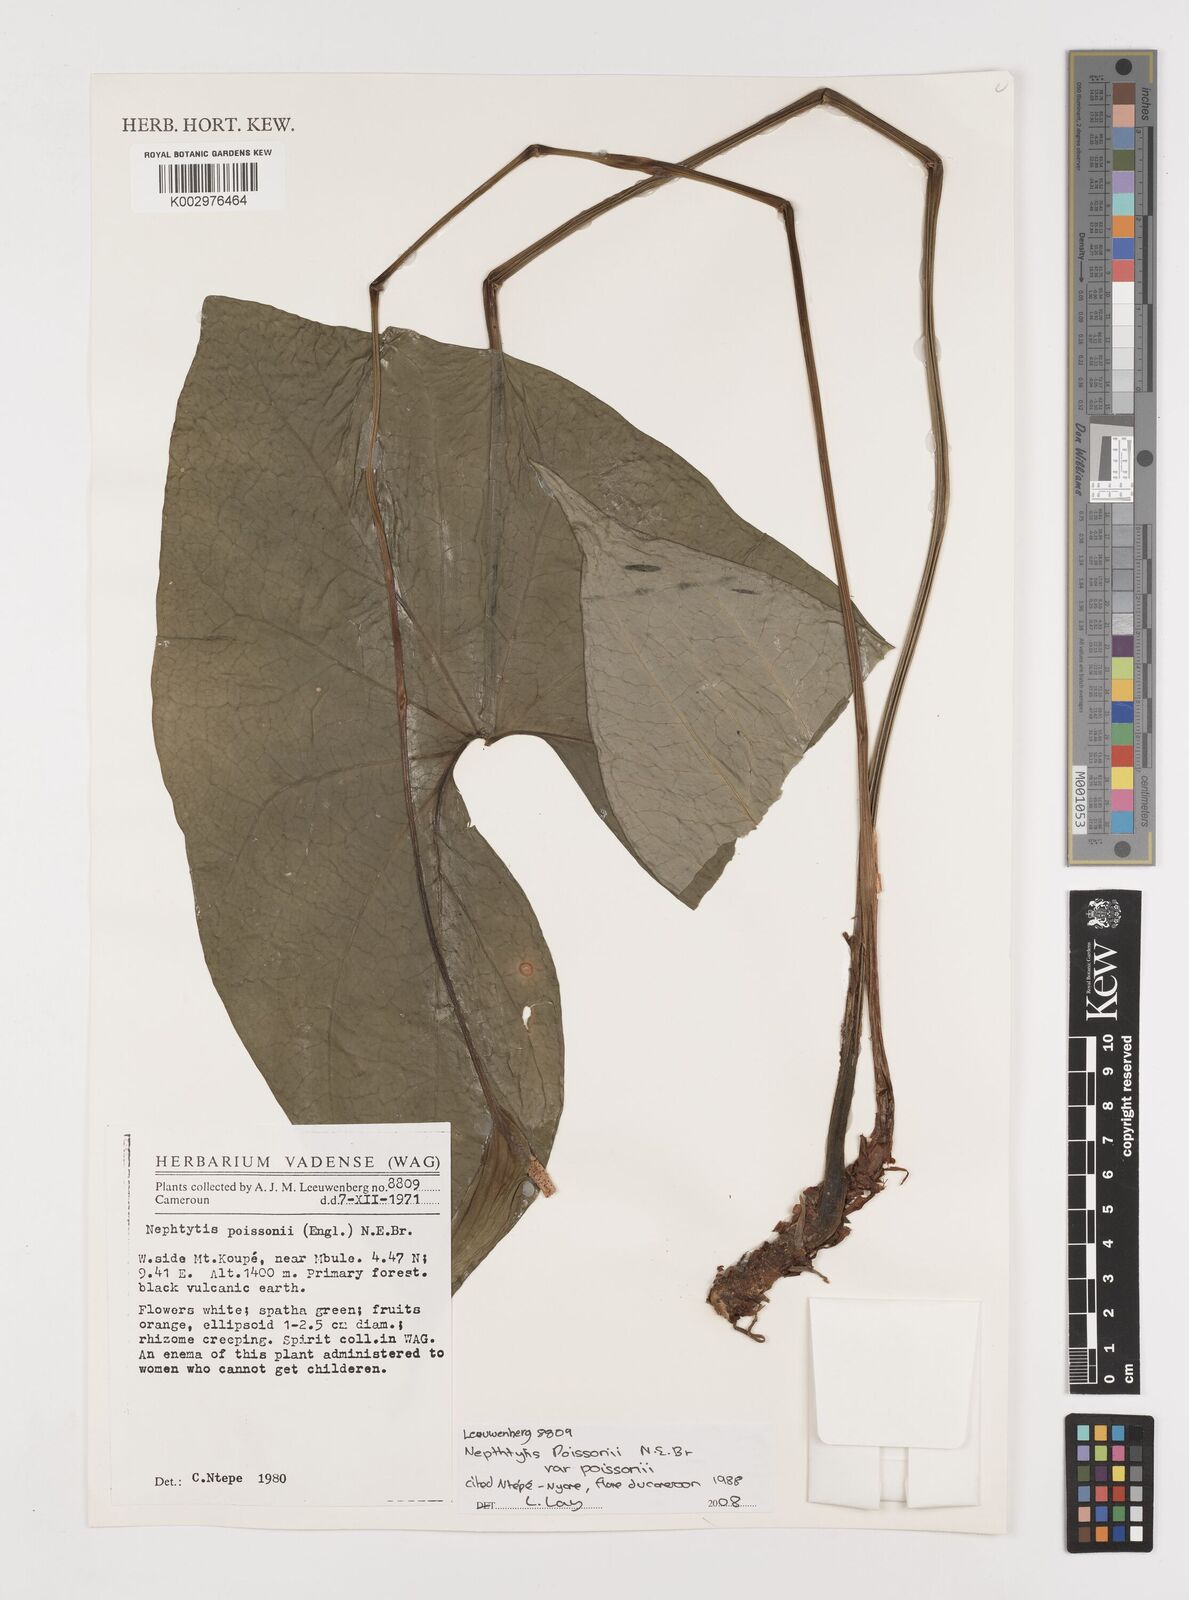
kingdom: Plantae
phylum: Tracheophyta
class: Liliopsida
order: Alismatales
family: Araceae
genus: Nephthytis
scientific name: Nephthytis poissonii
